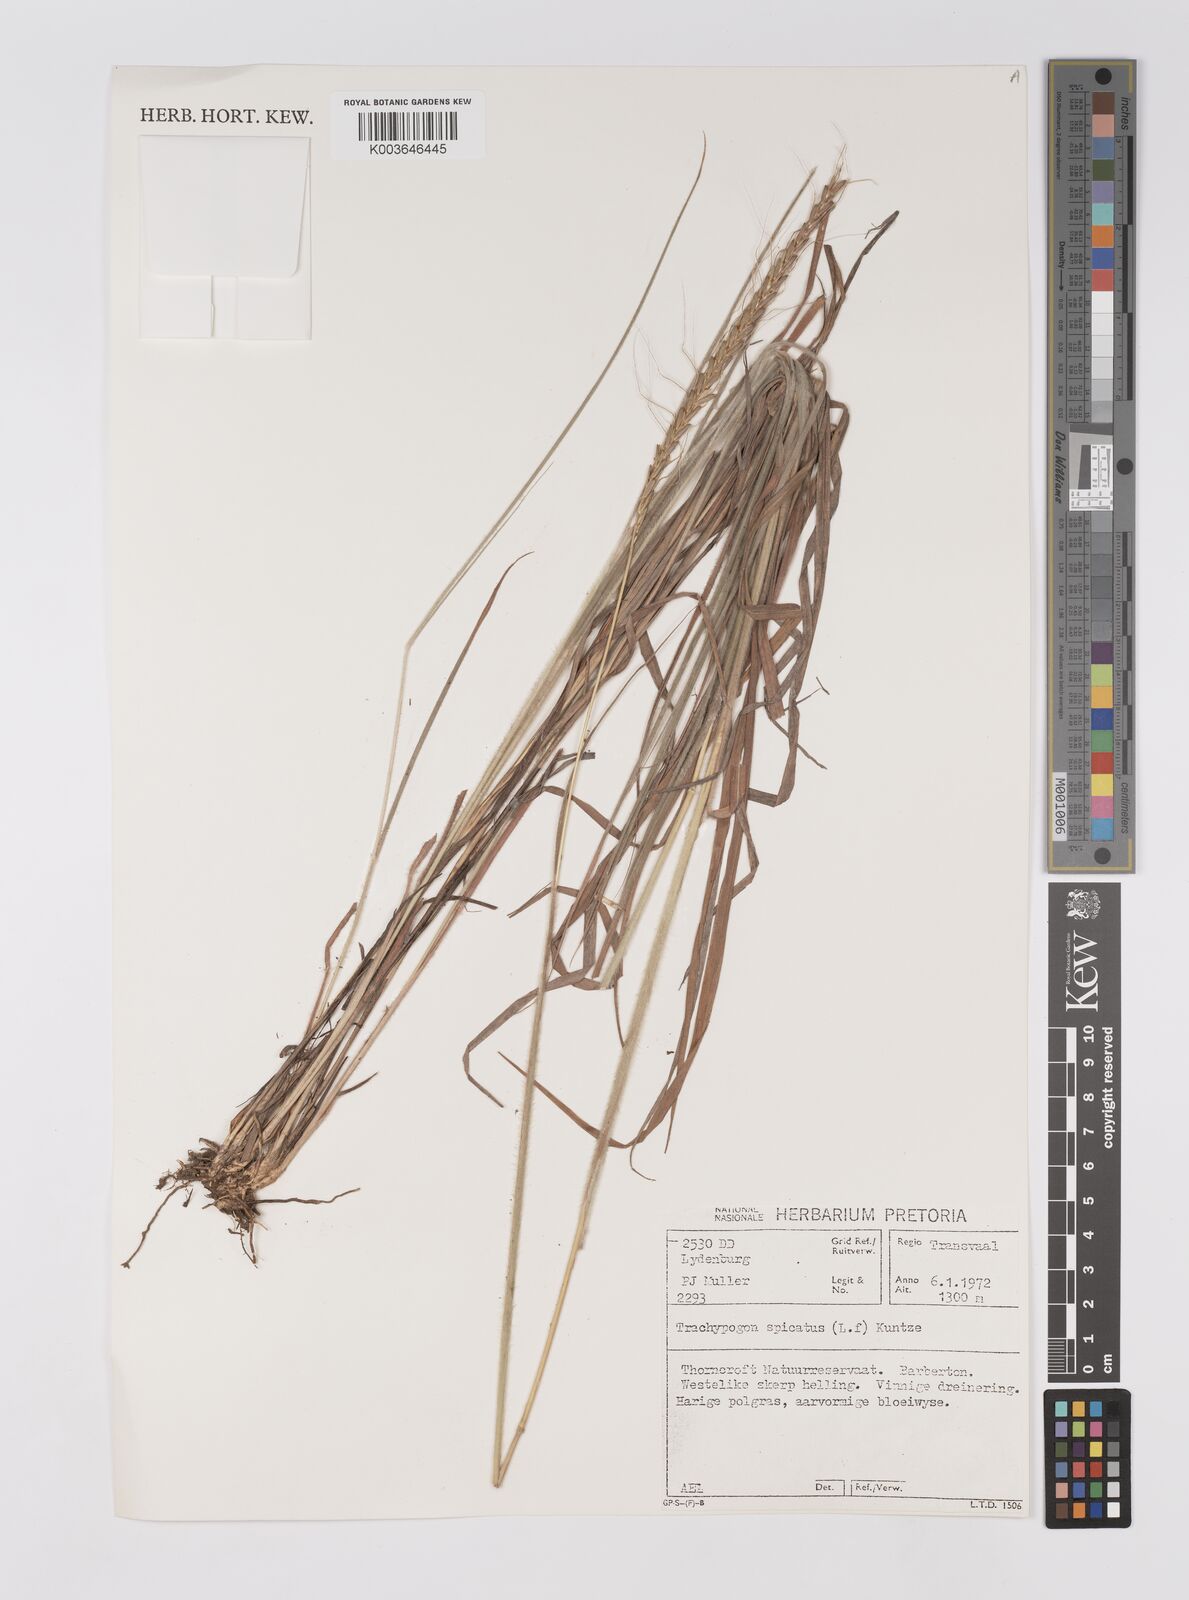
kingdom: Plantae
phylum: Tracheophyta
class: Liliopsida
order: Poales
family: Poaceae
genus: Trachypogon
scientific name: Trachypogon spicatus
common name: Crinkle-awn
